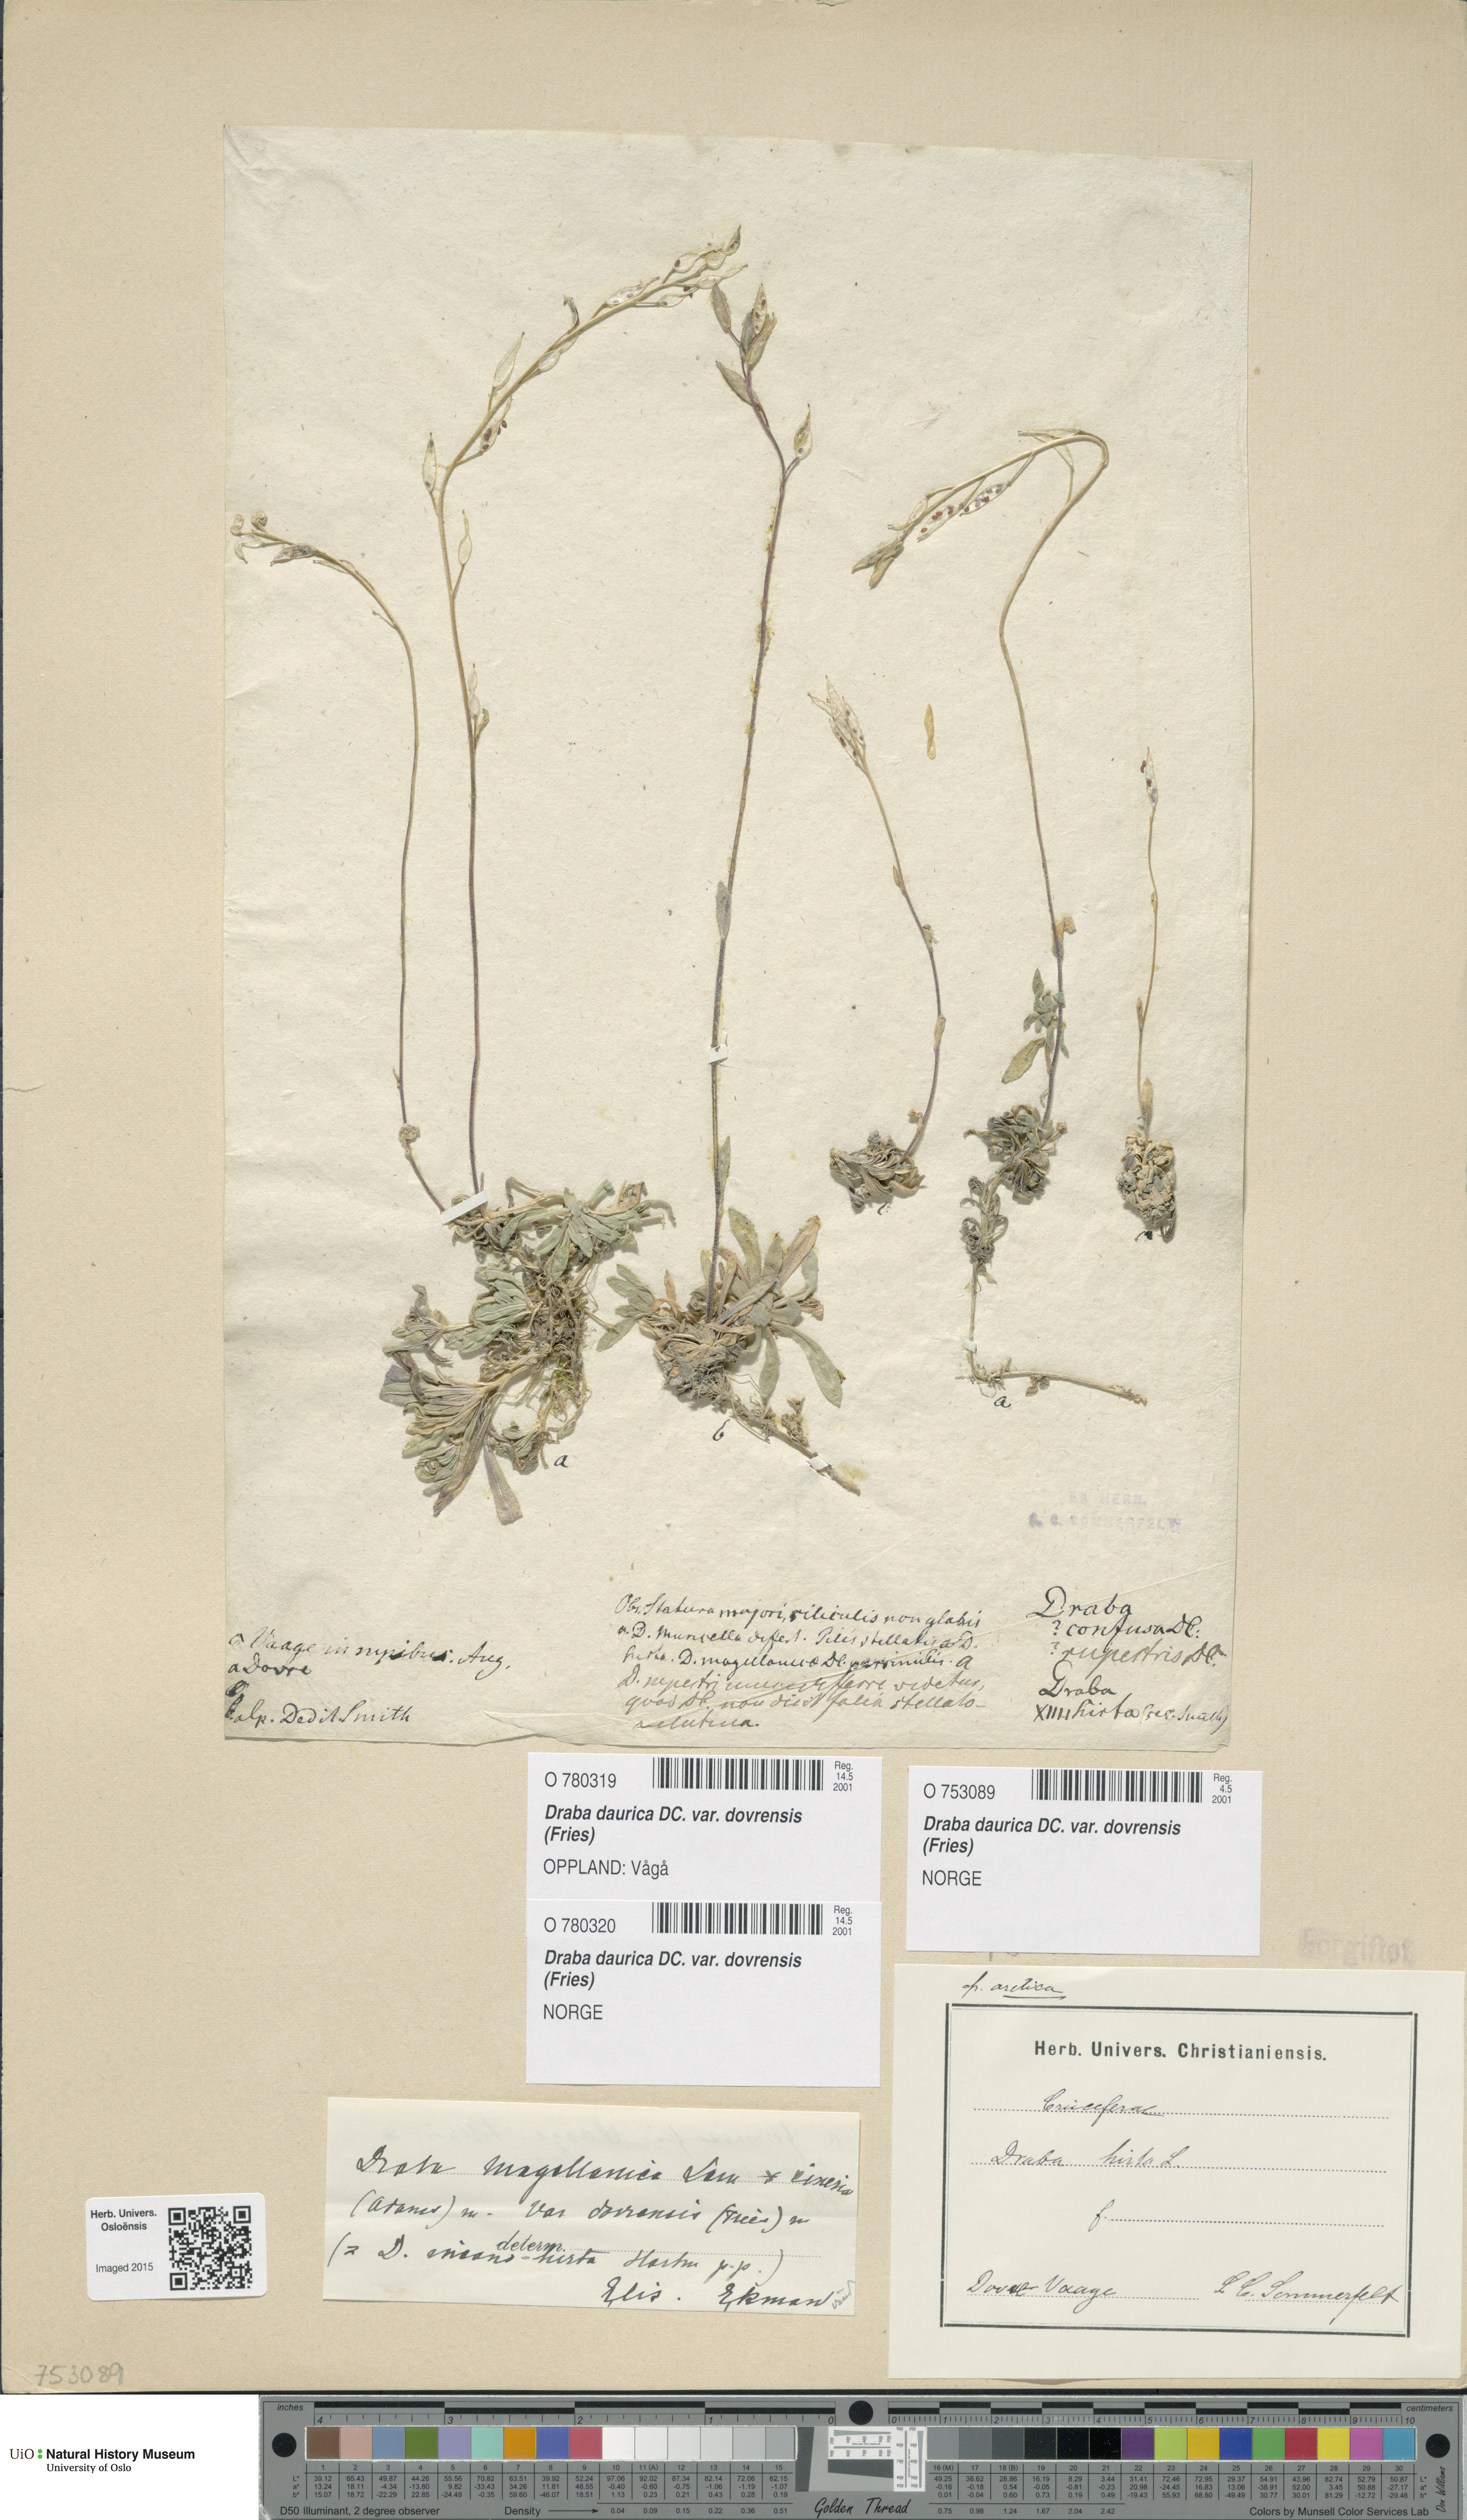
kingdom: Plantae
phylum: Tracheophyta
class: Magnoliopsida
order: Brassicales
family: Brassicaceae
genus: Draba
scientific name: Draba glabella
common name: Glaucous draba
